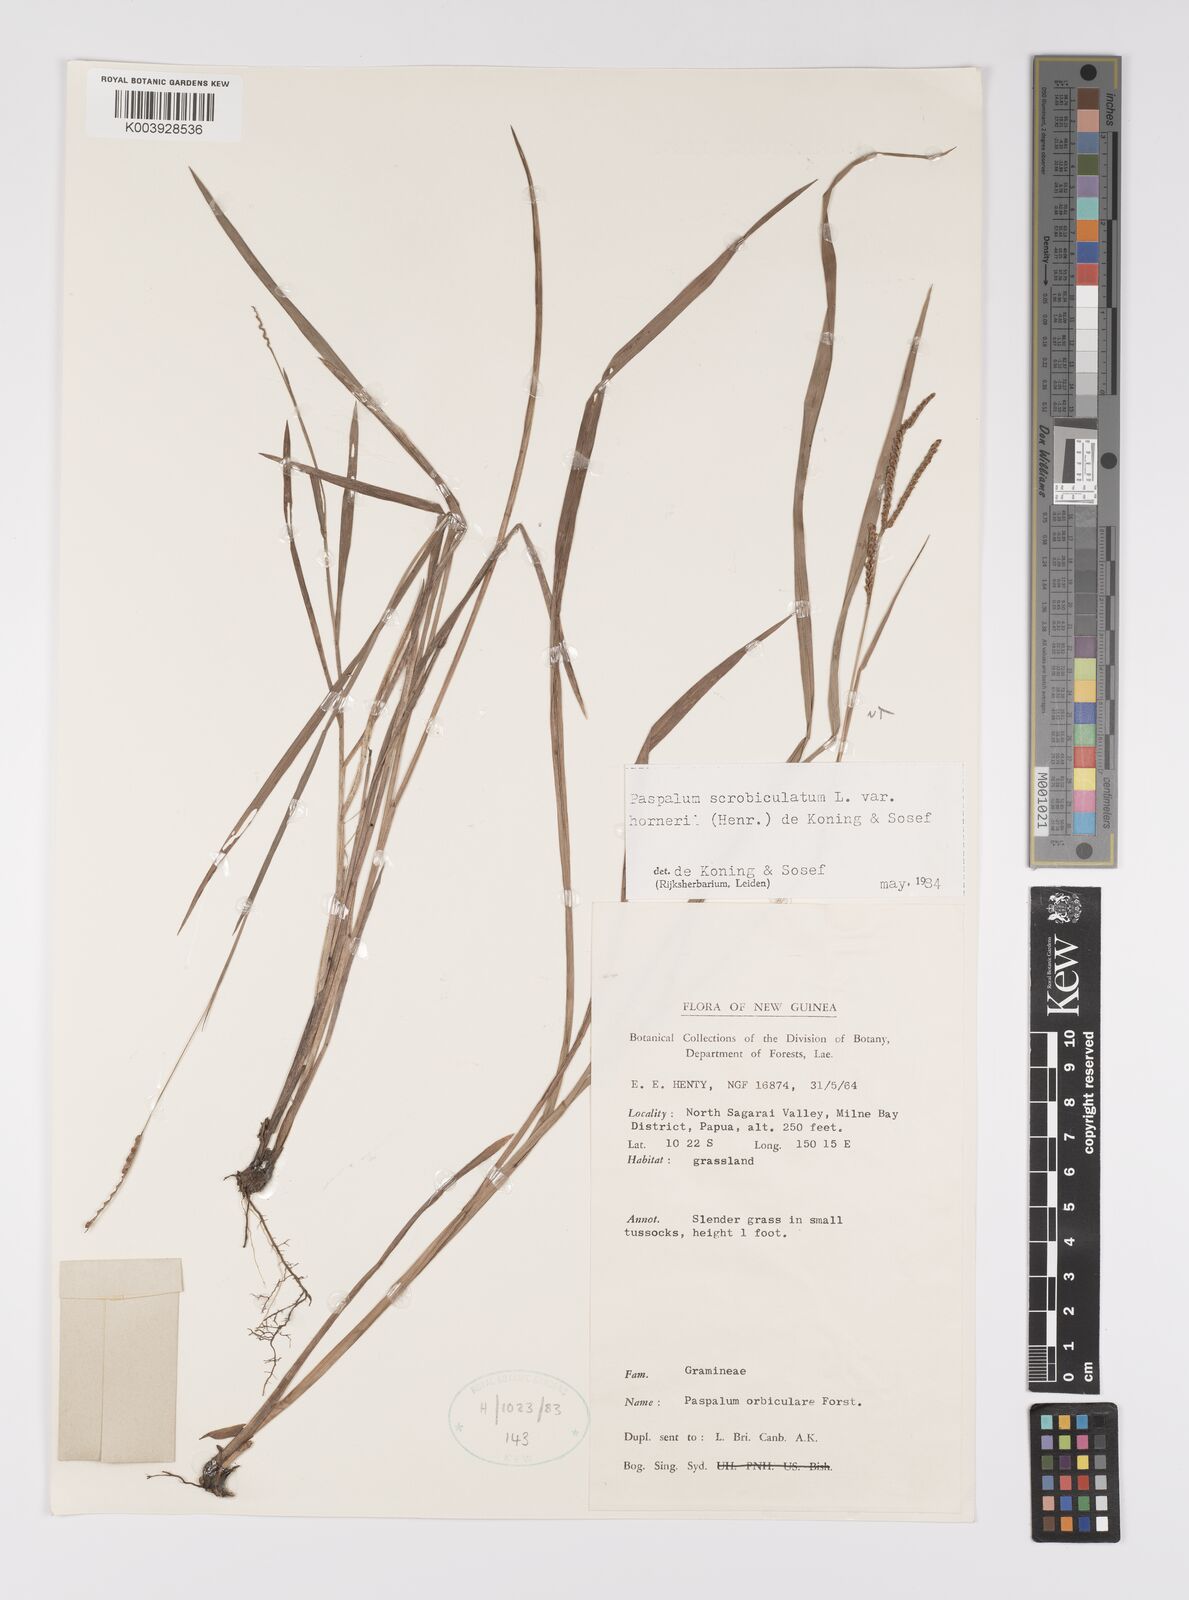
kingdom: Plantae
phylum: Tracheophyta
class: Liliopsida
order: Poales
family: Poaceae
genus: Paspalum
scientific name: Paspalum scrobiculatum
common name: Kodo millet
